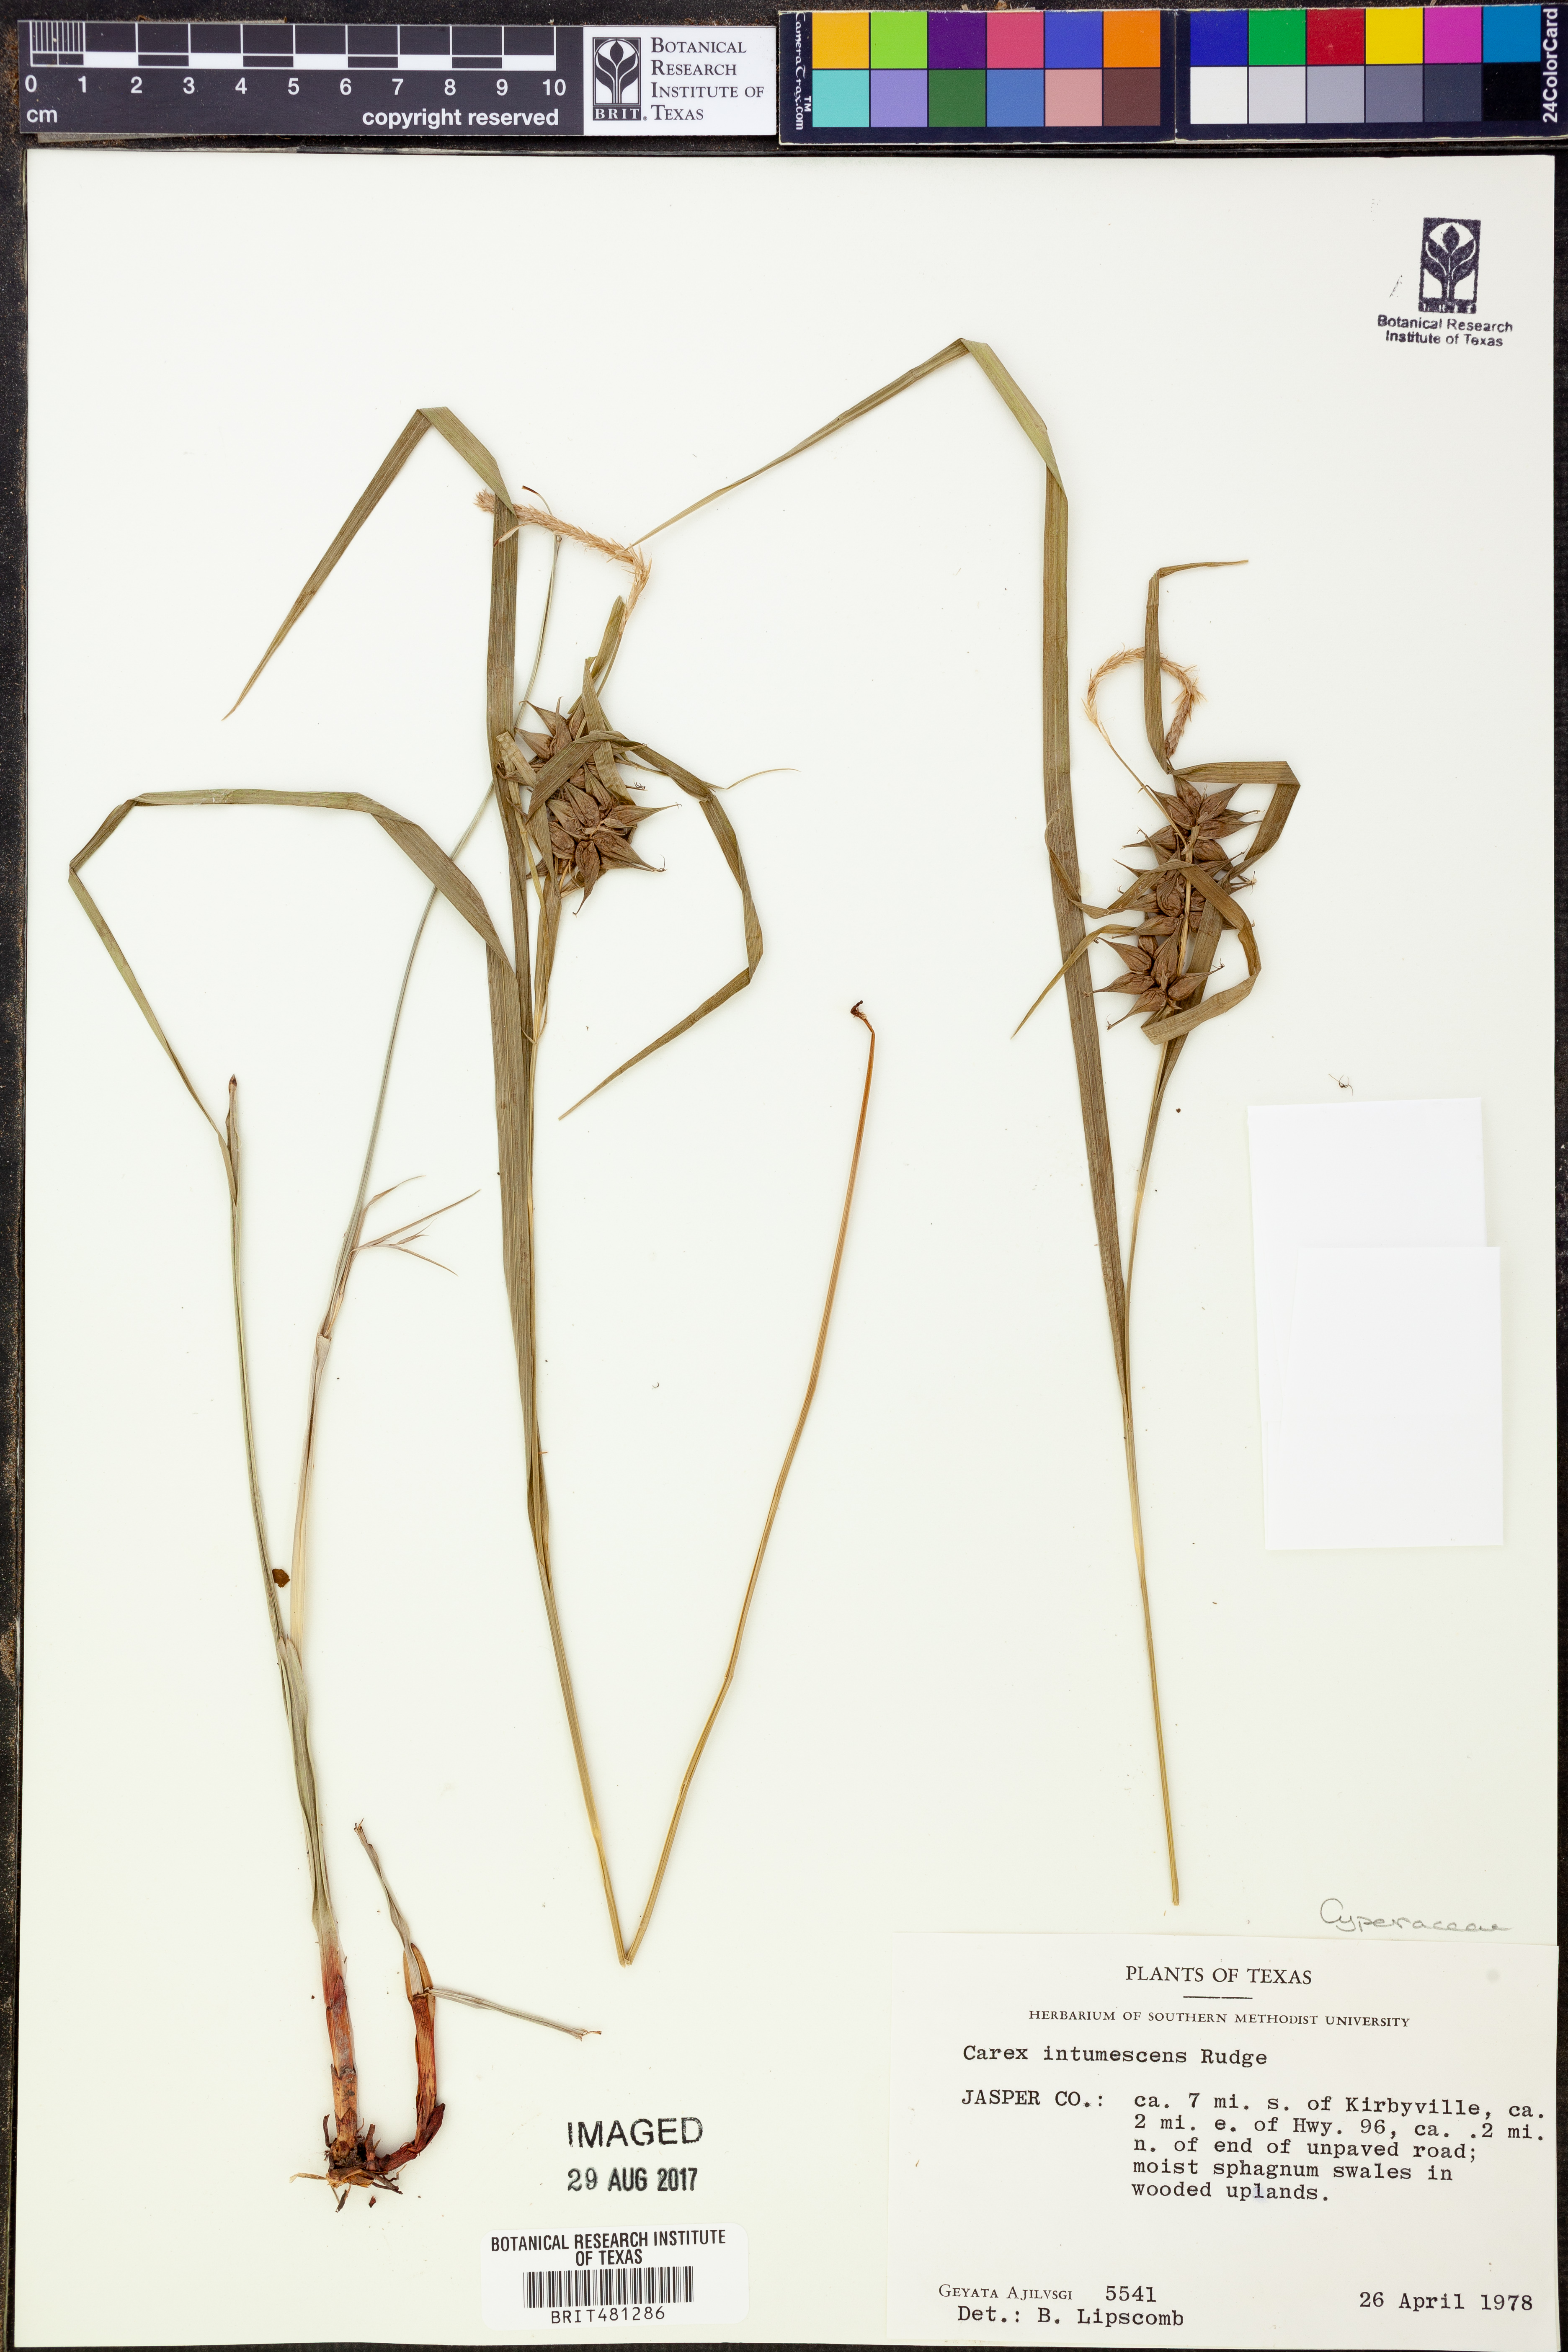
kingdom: Plantae
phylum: Tracheophyta
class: Liliopsida
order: Poales
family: Cyperaceae
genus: Carex
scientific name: Carex intumescens
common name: Greater bladder sedge
